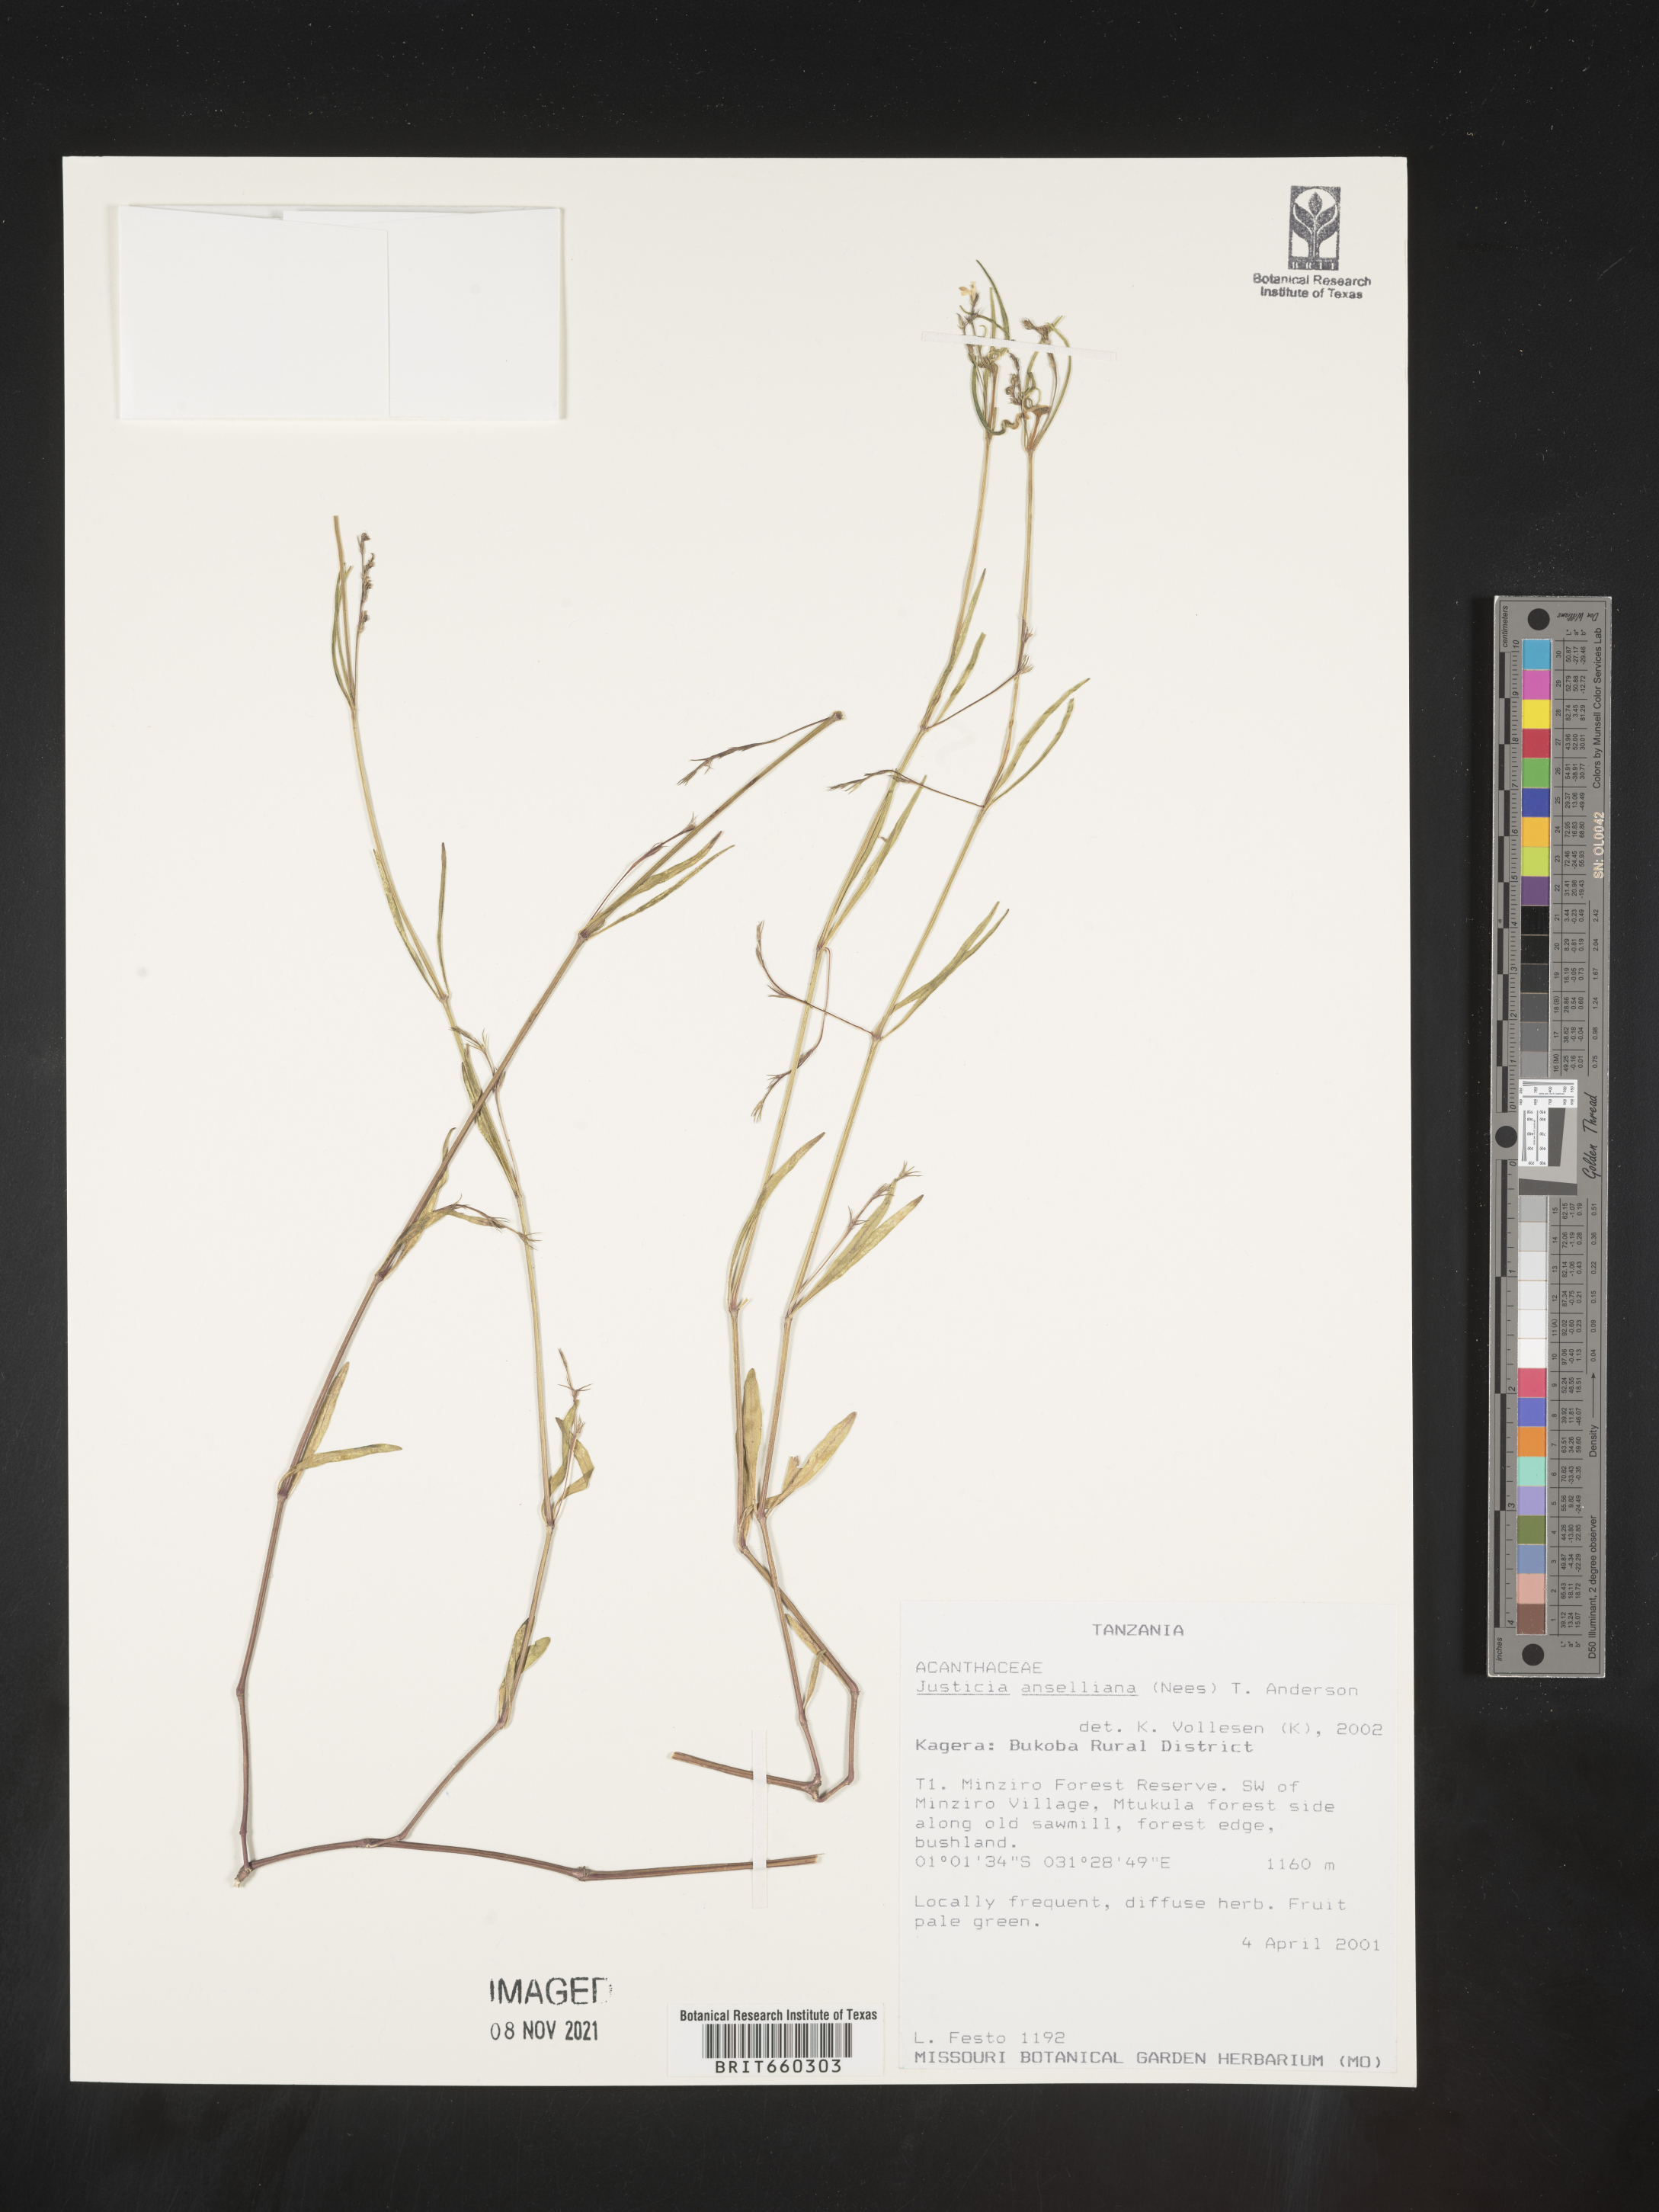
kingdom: Plantae
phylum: Tracheophyta
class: Magnoliopsida
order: Lamiales
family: Acanthaceae
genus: Justicia
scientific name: Justicia
